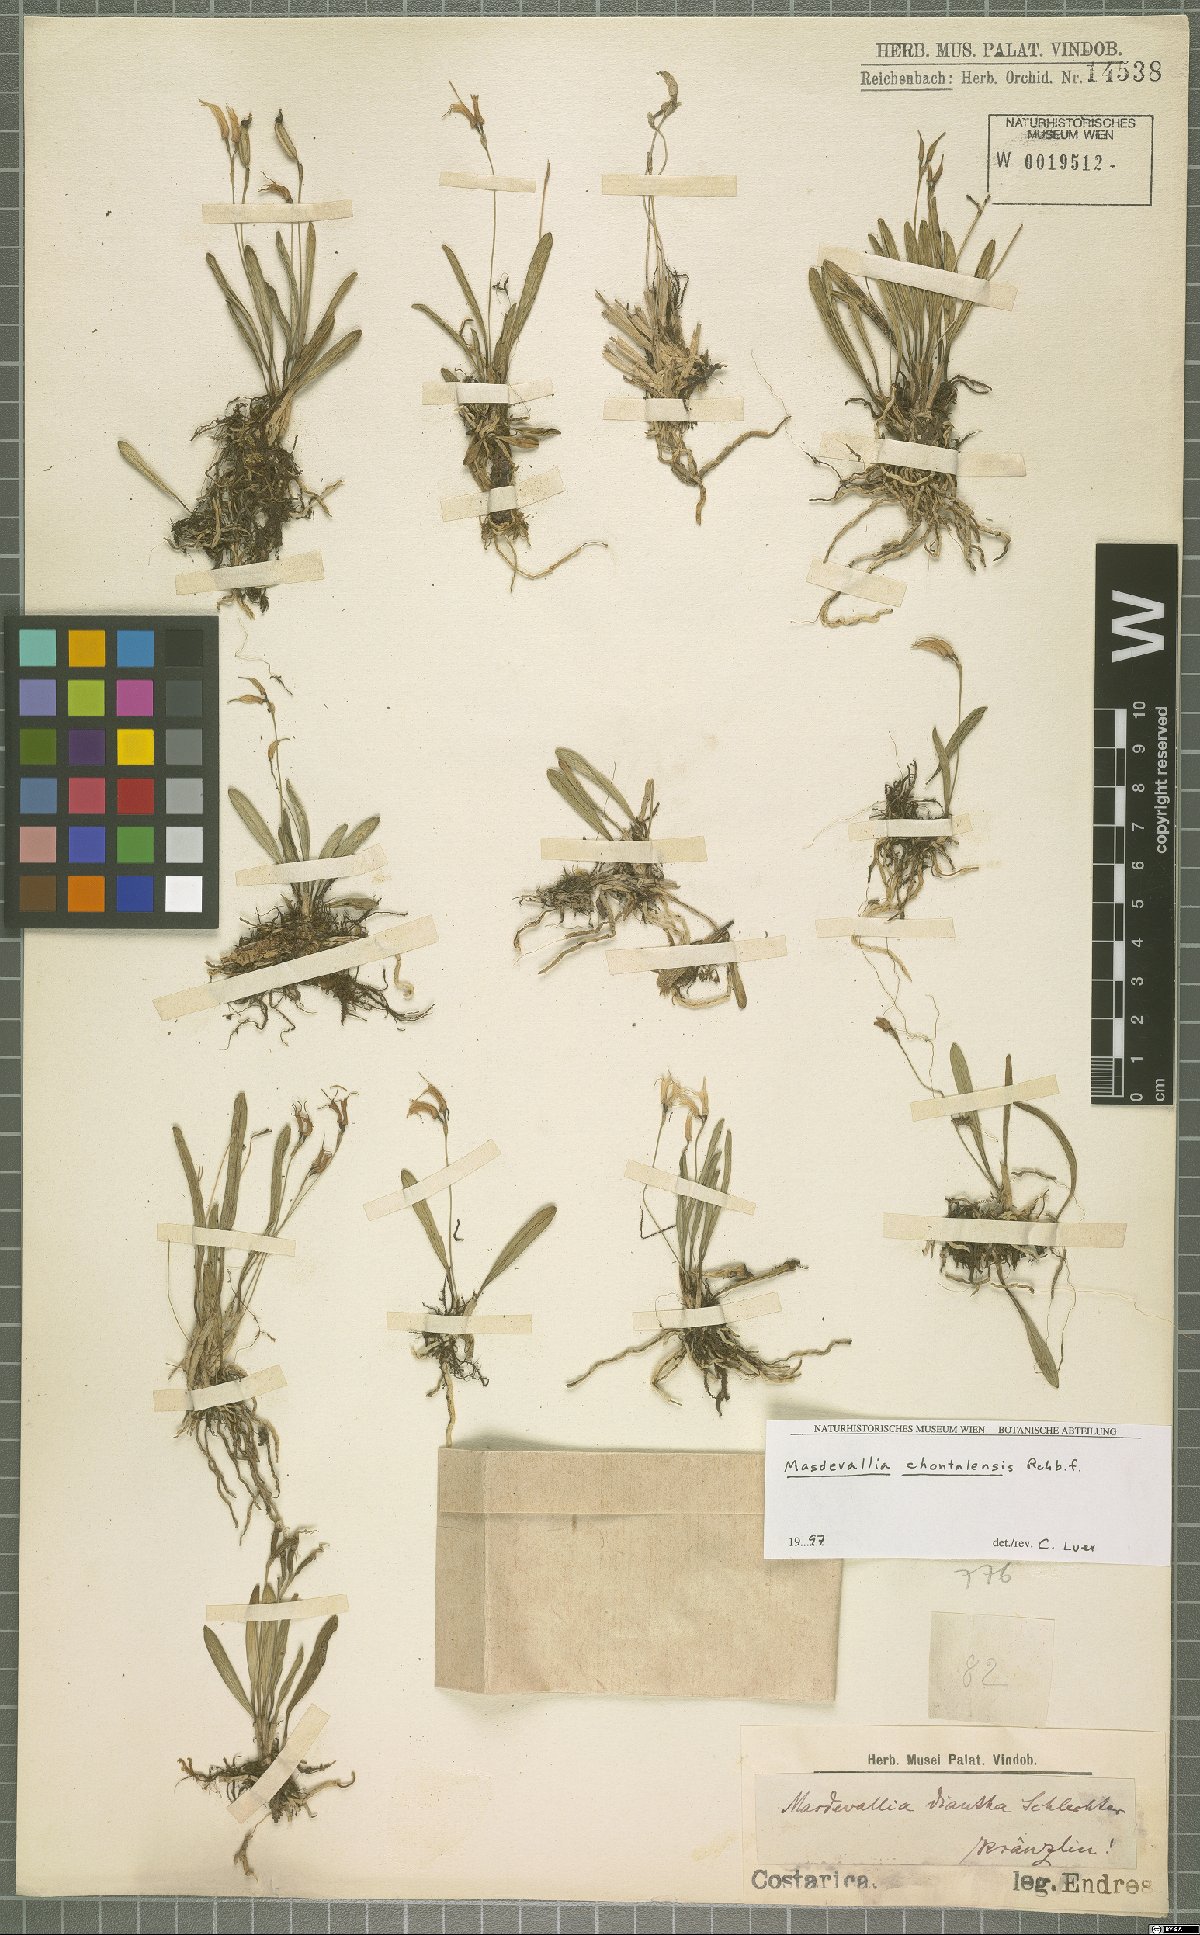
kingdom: Plantae
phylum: Tracheophyta
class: Liliopsida
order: Asparagales
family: Orchidaceae
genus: Masdevallia
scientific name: Masdevallia chontalensis
